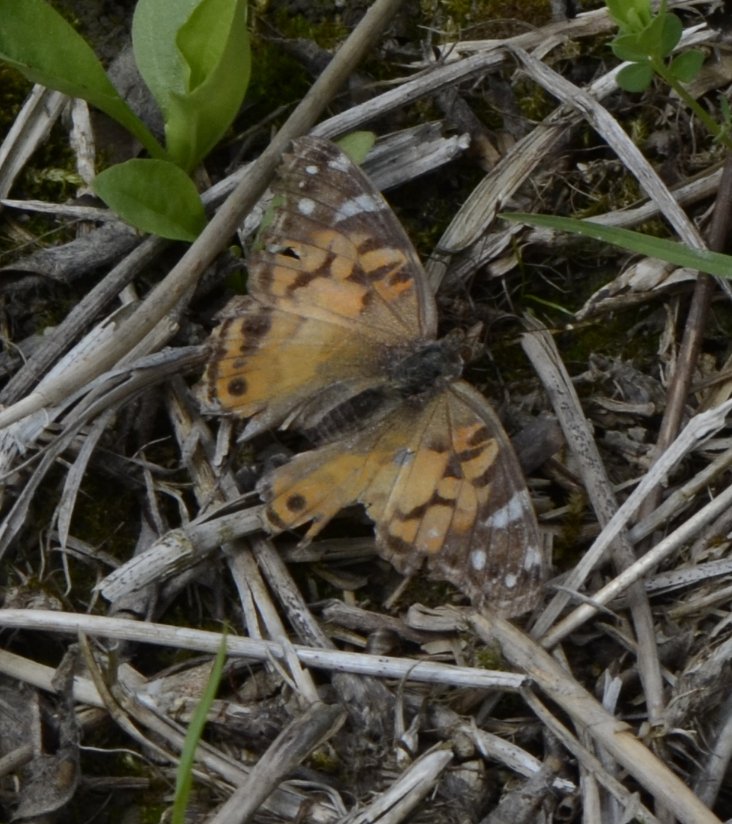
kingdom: Animalia
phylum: Arthropoda
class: Insecta
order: Lepidoptera
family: Nymphalidae
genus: Vanessa
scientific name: Vanessa virginiensis
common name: American Lady
